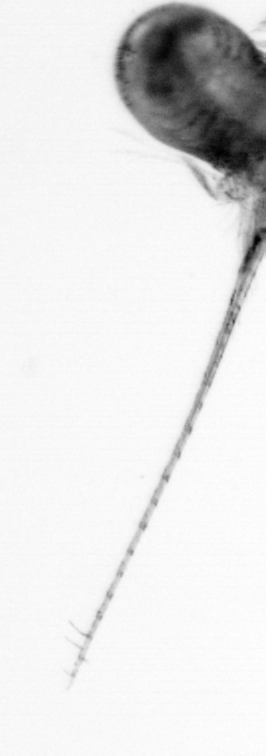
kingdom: Animalia
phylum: Arthropoda
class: Copepoda
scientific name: Copepoda
